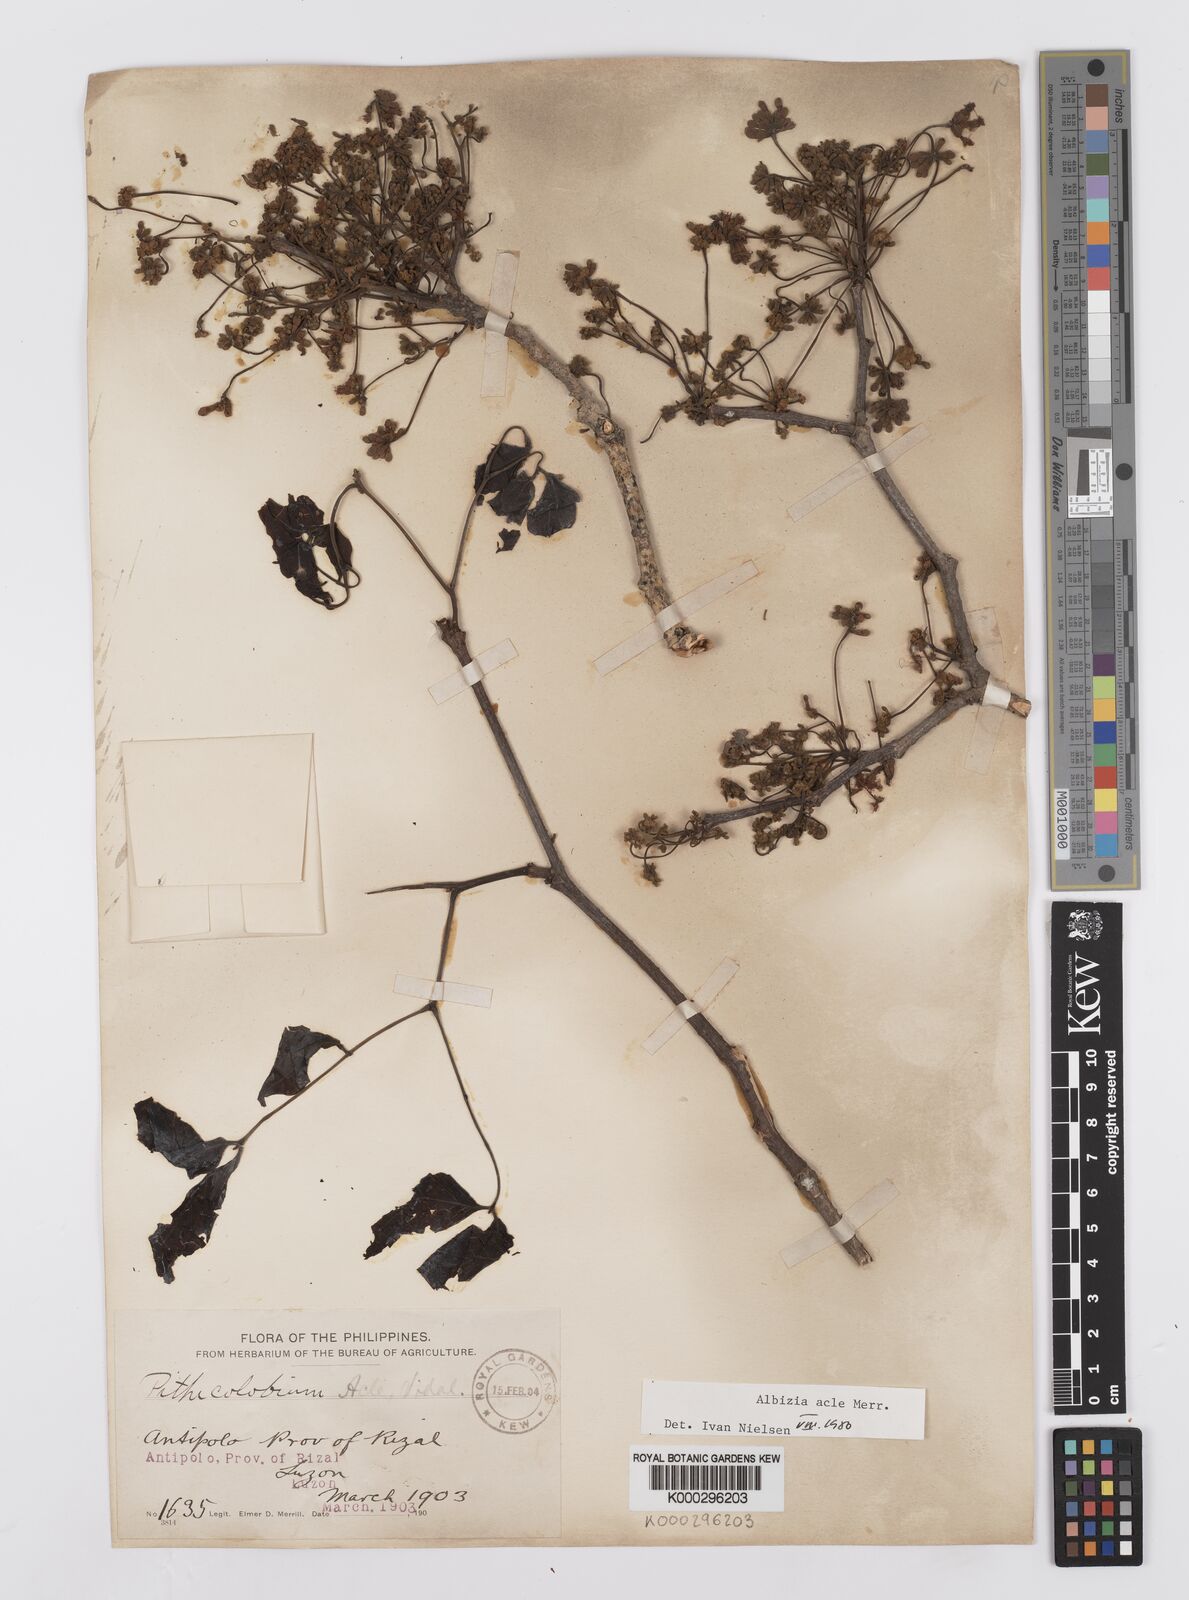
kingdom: Plantae
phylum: Tracheophyta
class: Magnoliopsida
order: Fabales
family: Fabaceae
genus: Albizia
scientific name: Albizia acle
